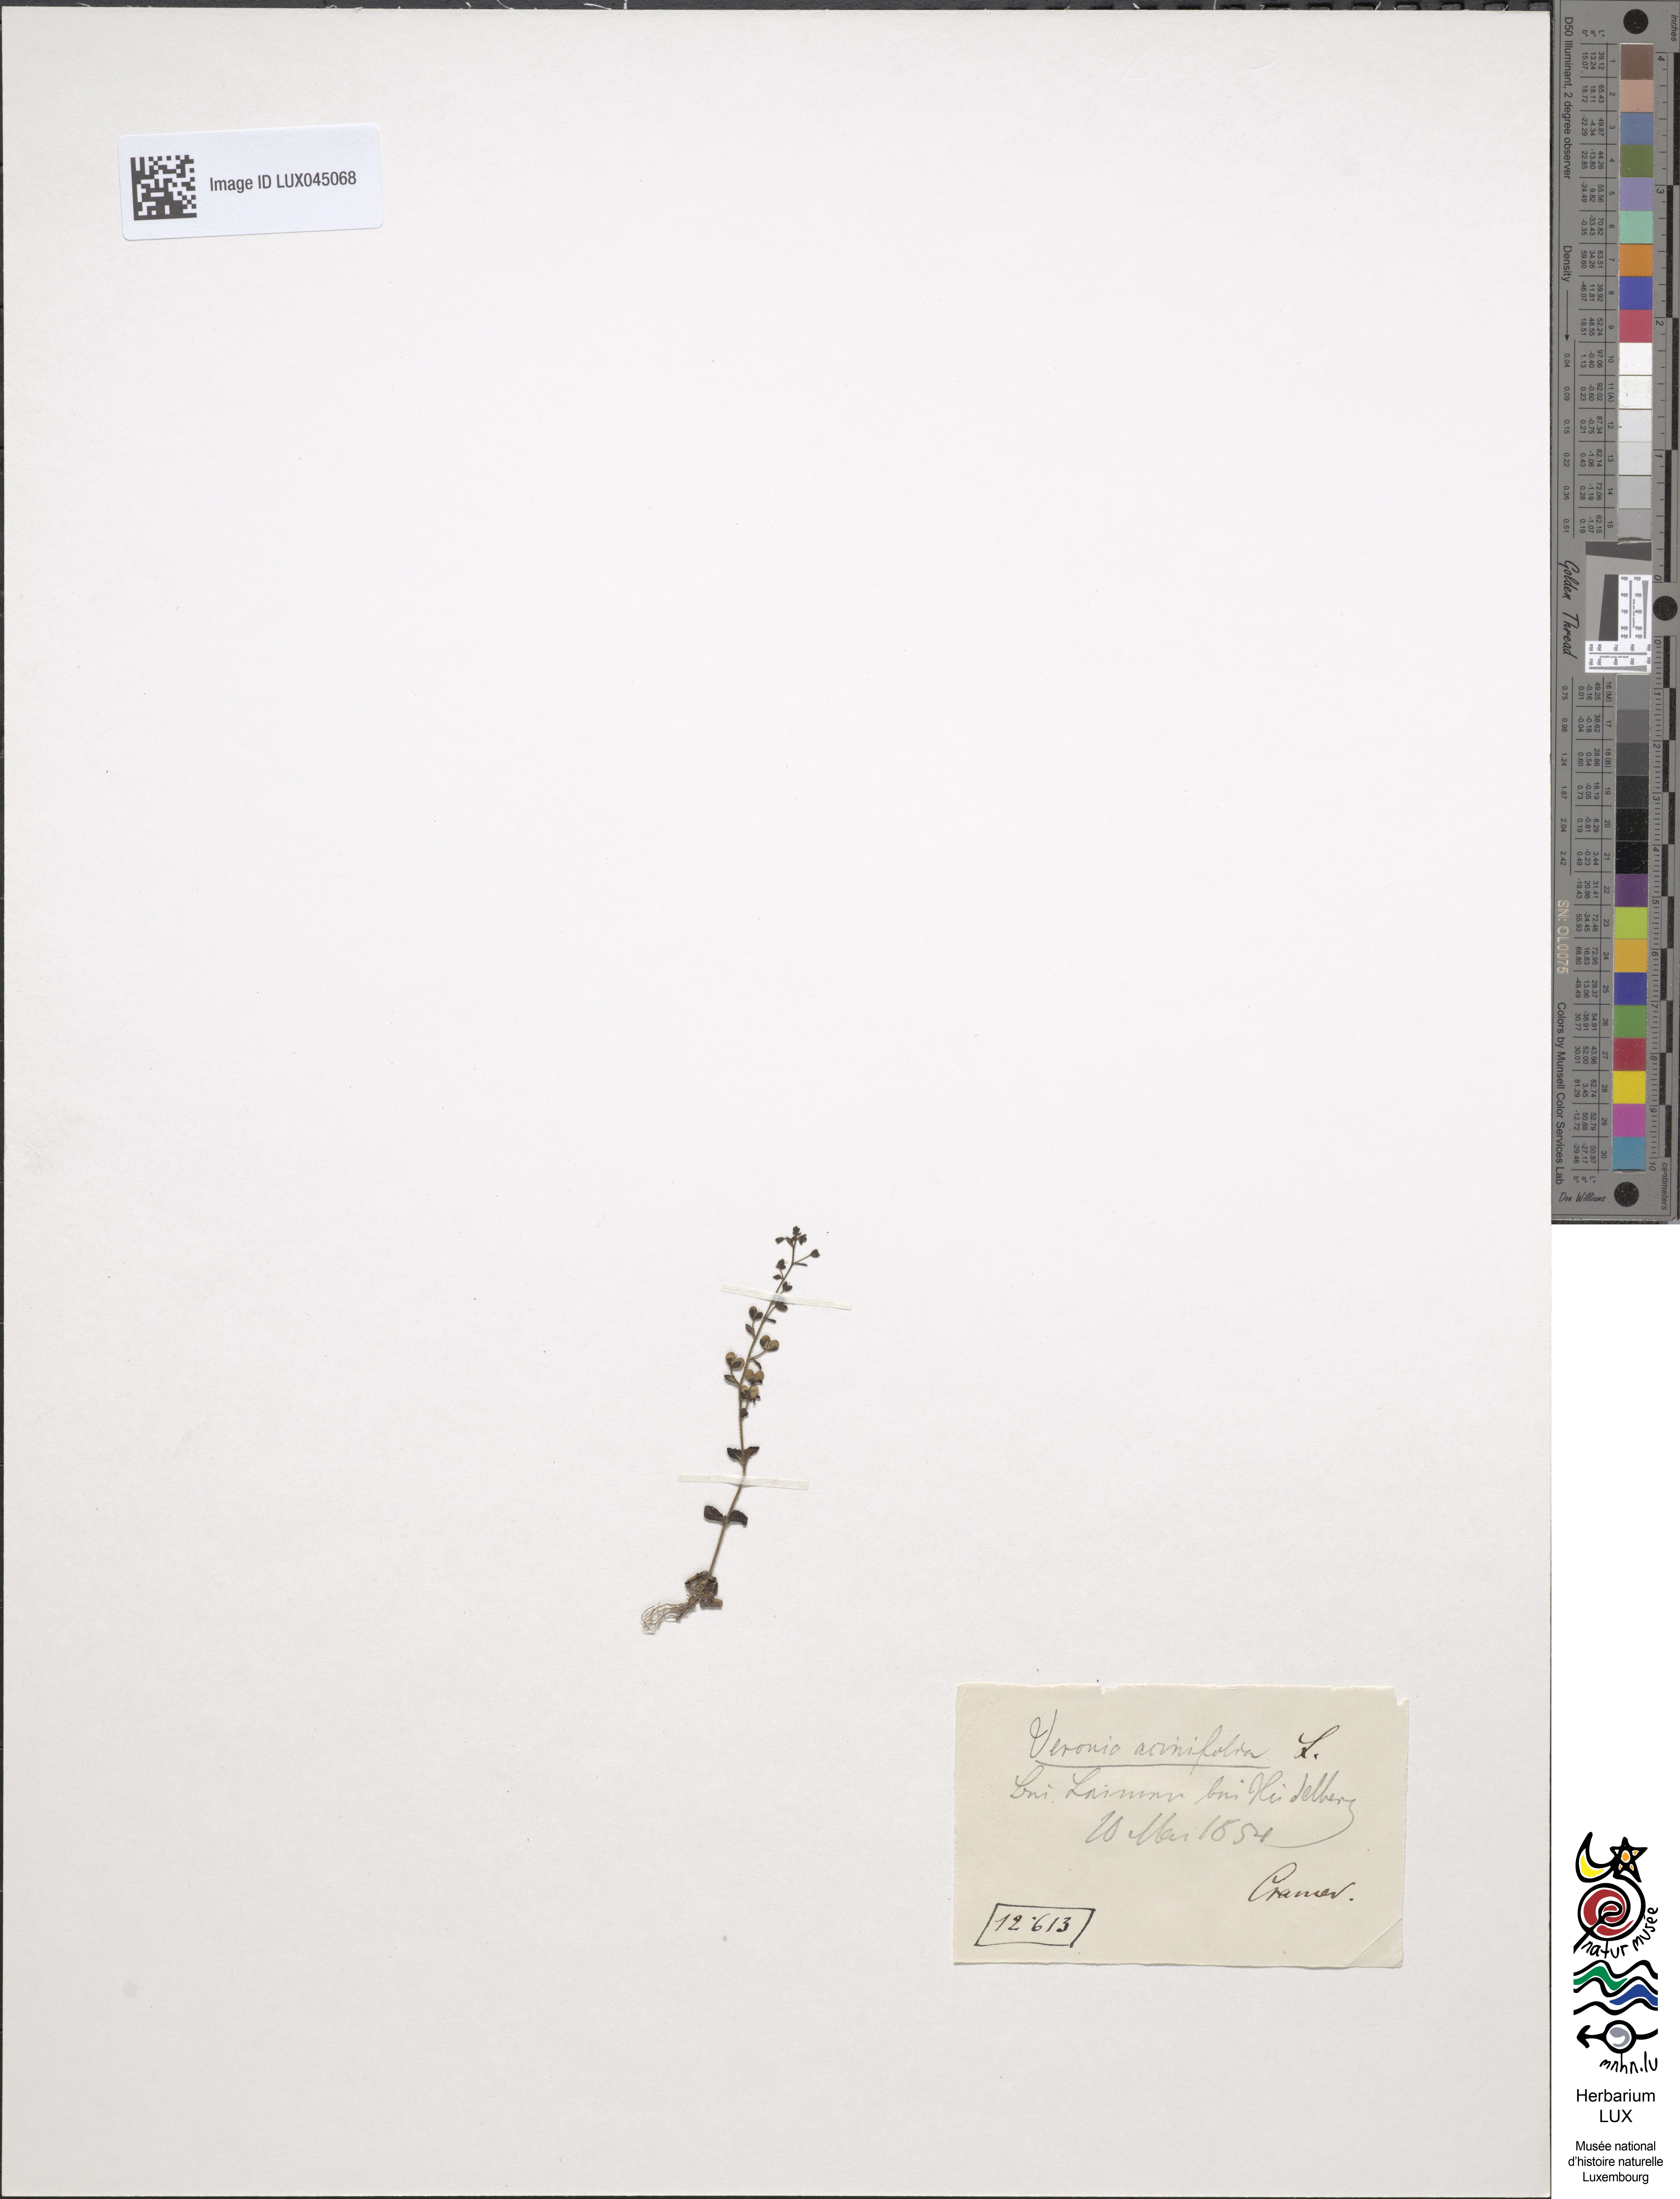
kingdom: Plantae
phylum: Tracheophyta
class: Magnoliopsida
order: Lamiales
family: Plantaginaceae
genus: Veronica
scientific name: Veronica acinifolia
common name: French speedwell
